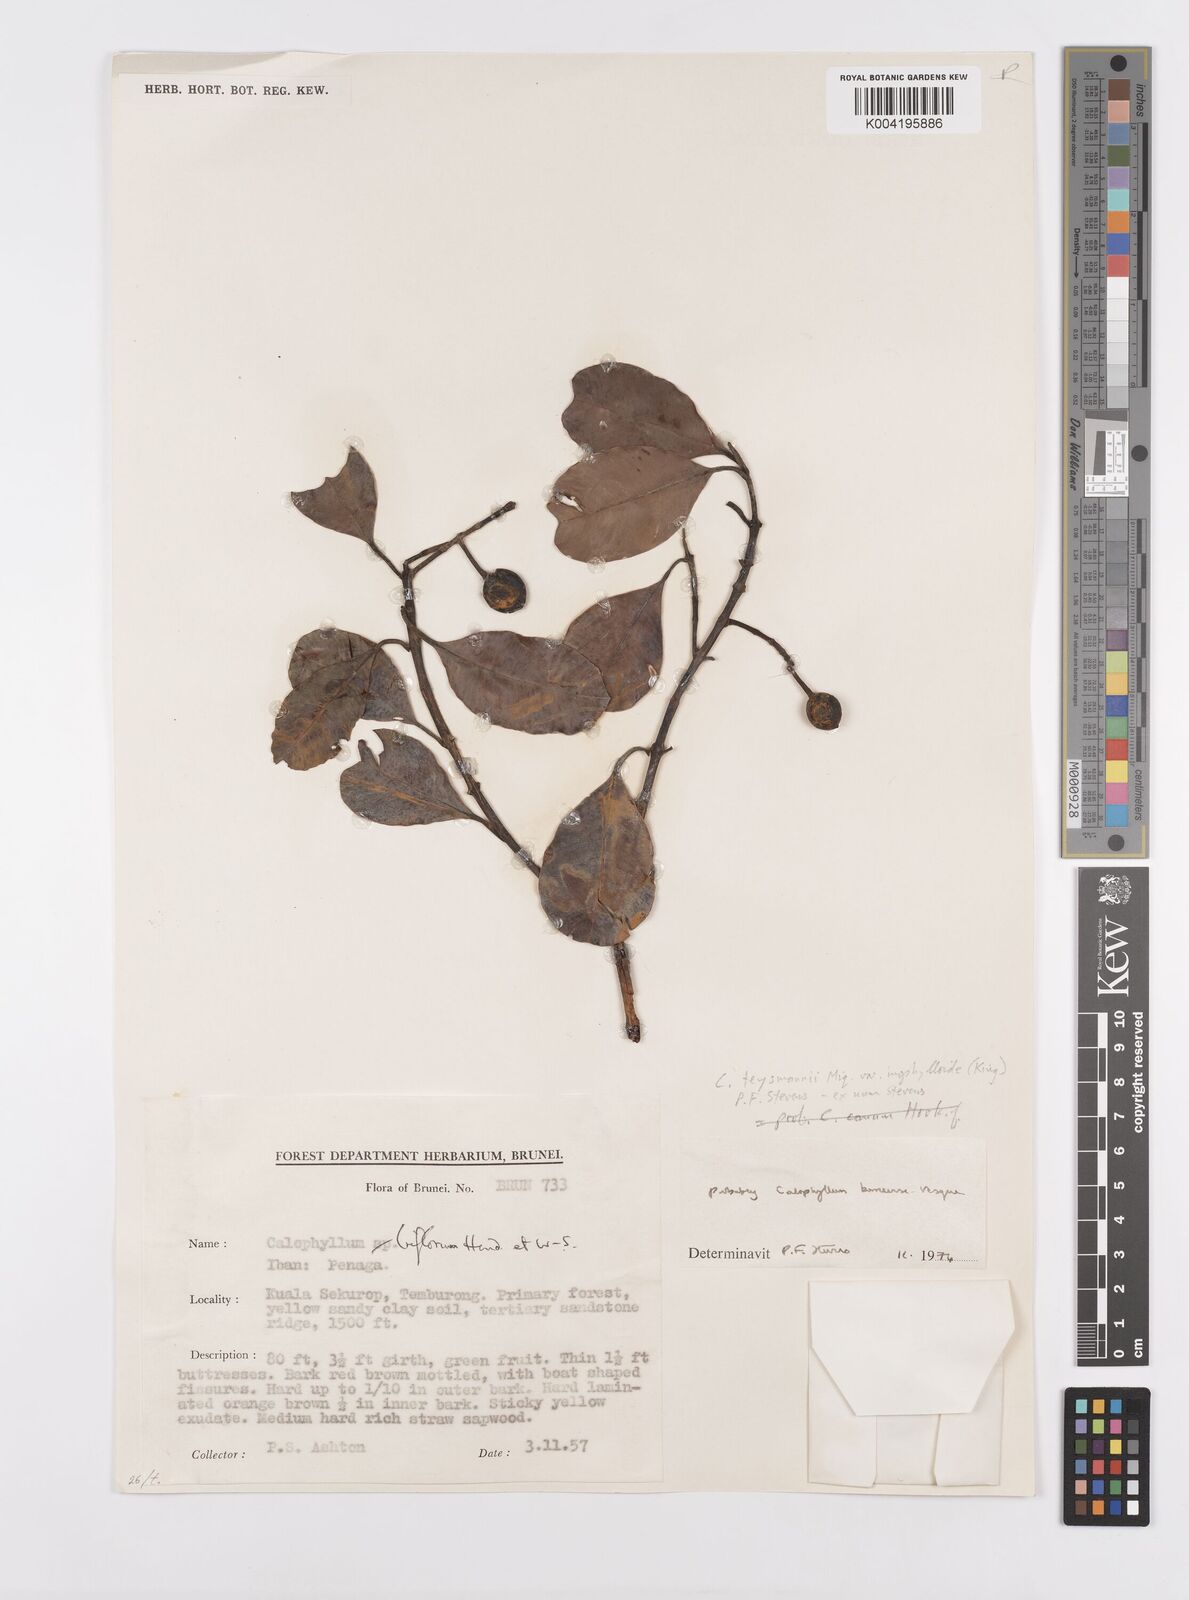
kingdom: Plantae
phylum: Tracheophyta
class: Magnoliopsida
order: Malpighiales
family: Calophyllaceae
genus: Calophyllum
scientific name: Calophyllum teysmannii
